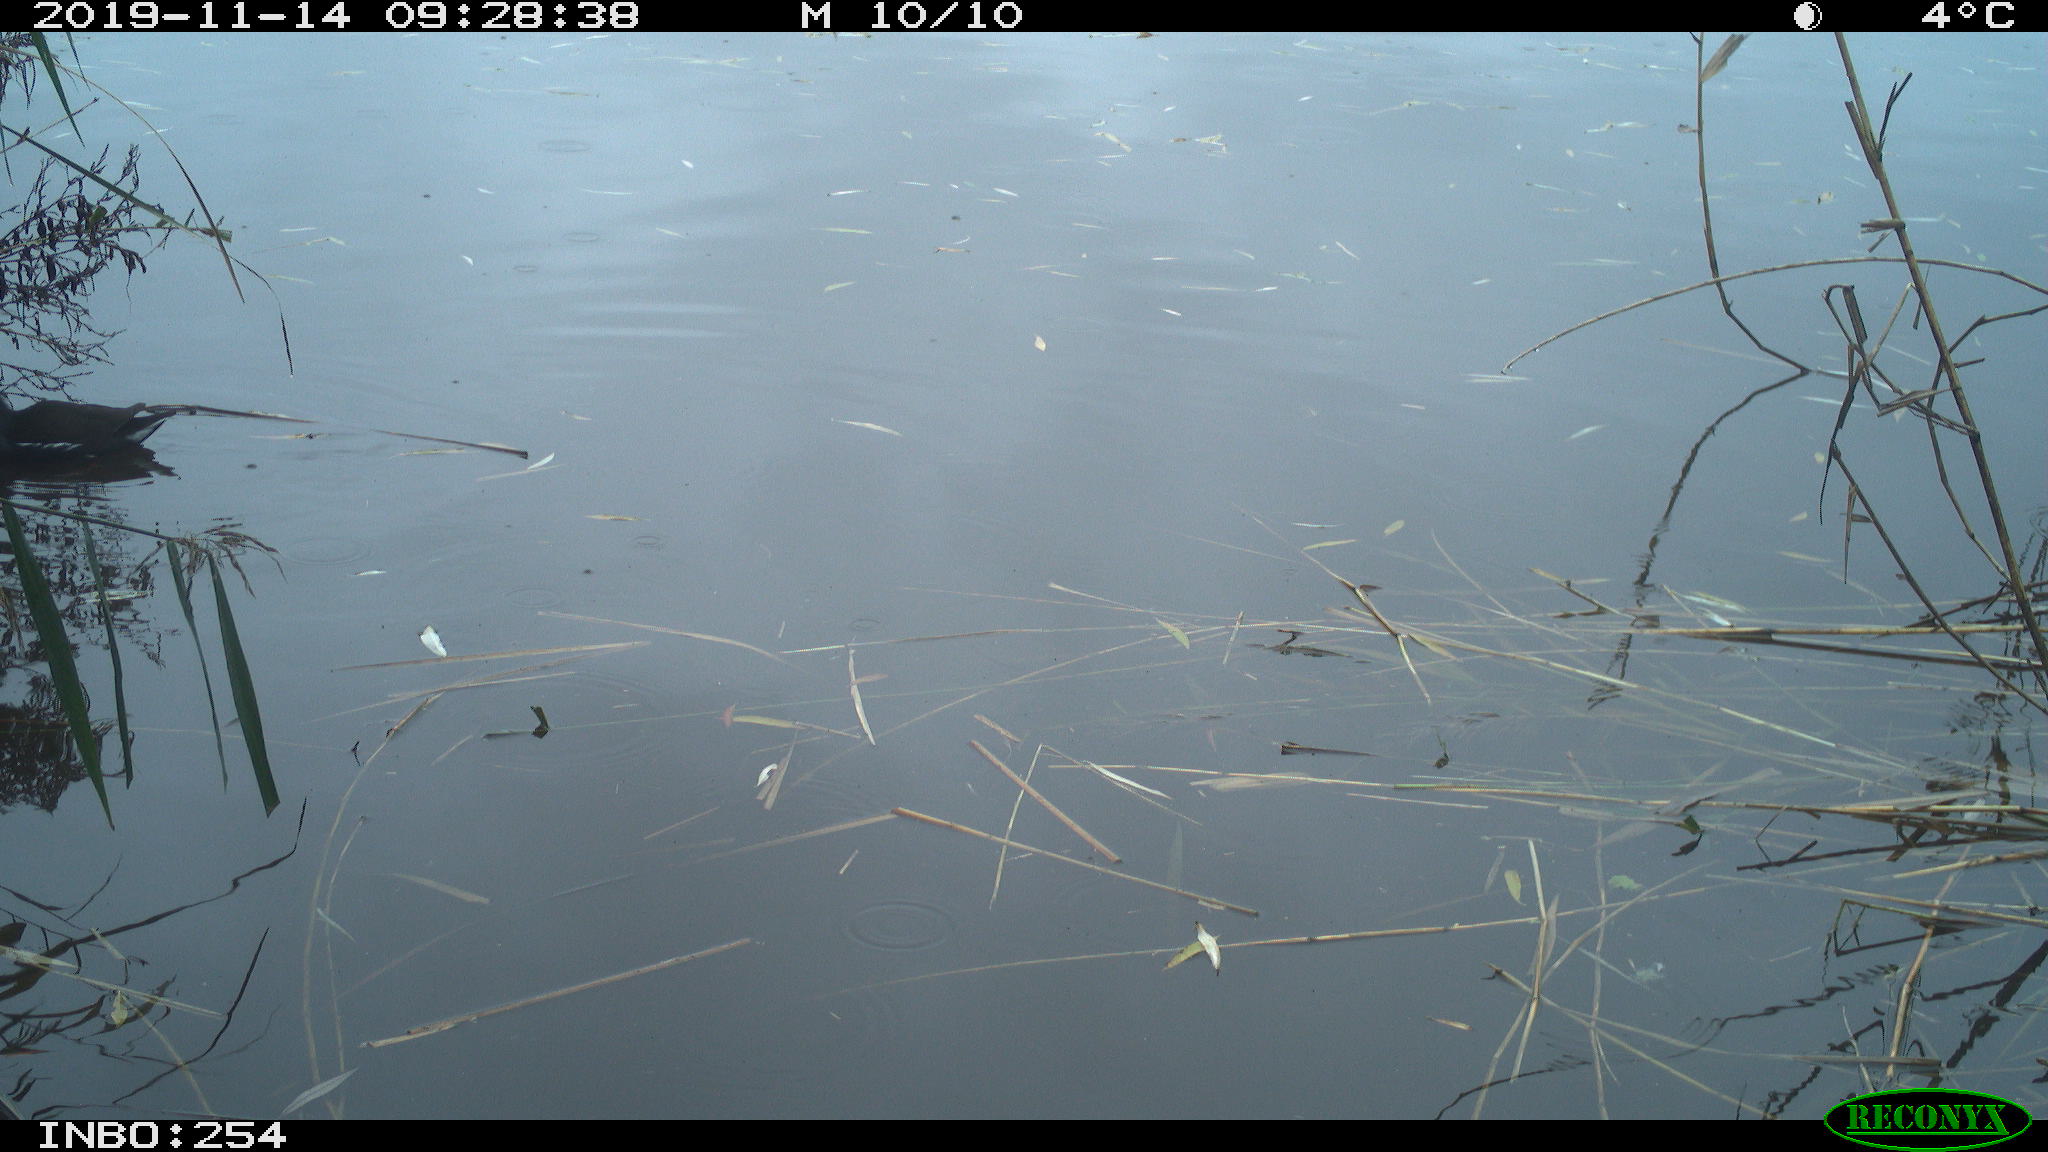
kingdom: Animalia
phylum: Chordata
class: Aves
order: Gruiformes
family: Rallidae
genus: Gallinula
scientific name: Gallinula chloropus
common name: Common moorhen
